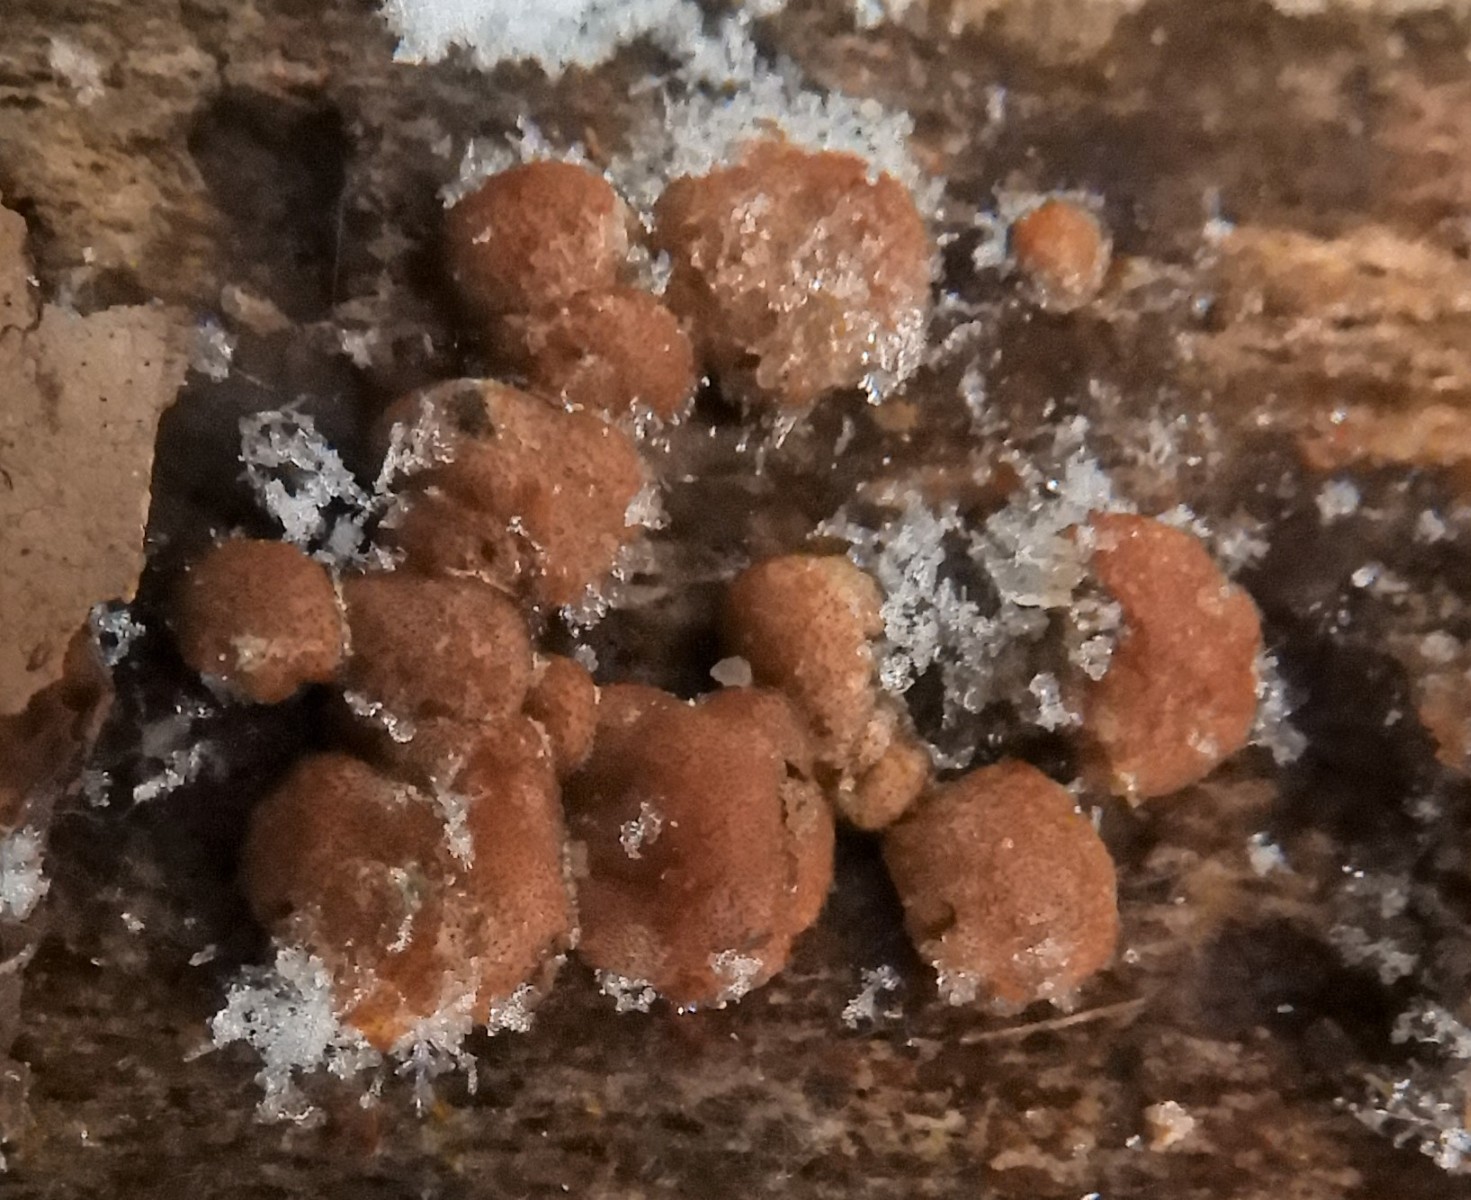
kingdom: Fungi
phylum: Ascomycota
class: Sordariomycetes
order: Hypocreales
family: Hypocreaceae
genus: Trichoderma
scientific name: Trichoderma europaeum
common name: rosabrun kødkerne
